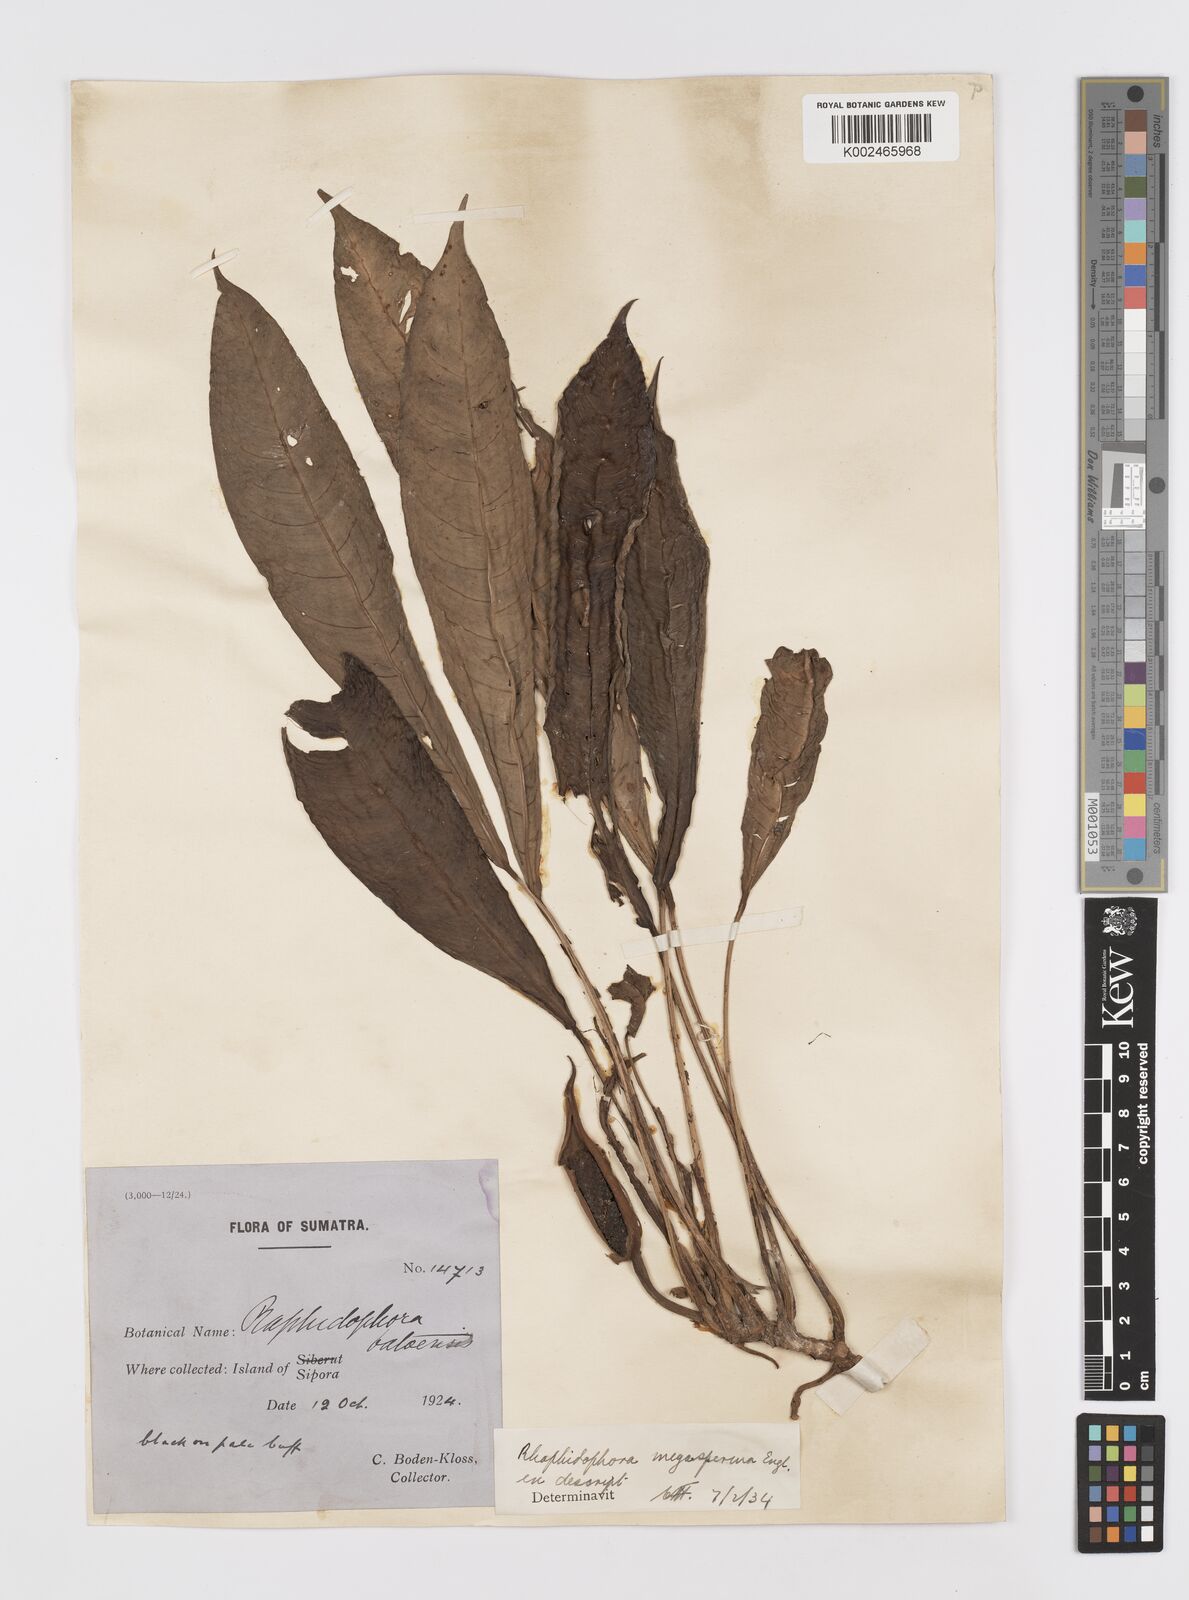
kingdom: Plantae
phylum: Tracheophyta
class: Liliopsida
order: Alismatales
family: Araceae
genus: Rhaphidophora
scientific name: Rhaphidophora puberula
